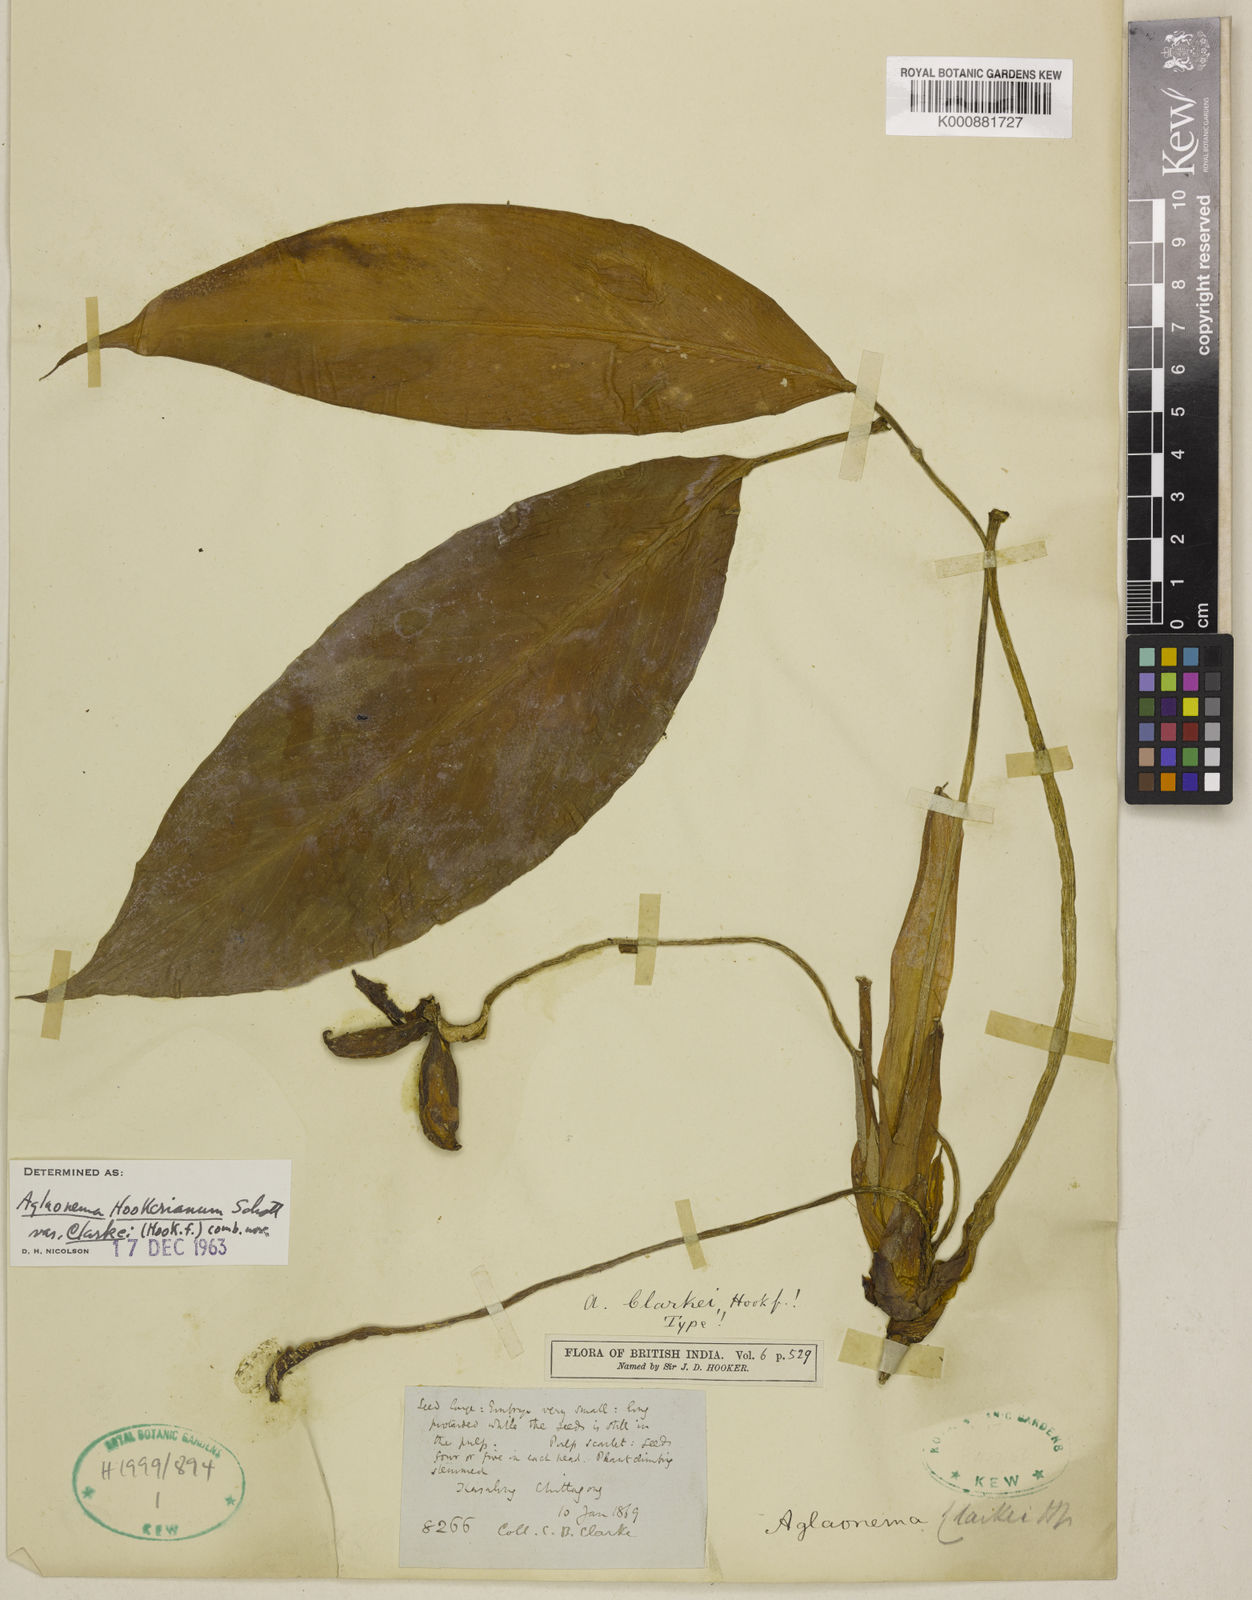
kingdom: Plantae
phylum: Tracheophyta
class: Liliopsida
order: Alismatales
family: Araceae
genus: Aglaonema
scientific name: Aglaonema hookerianum
